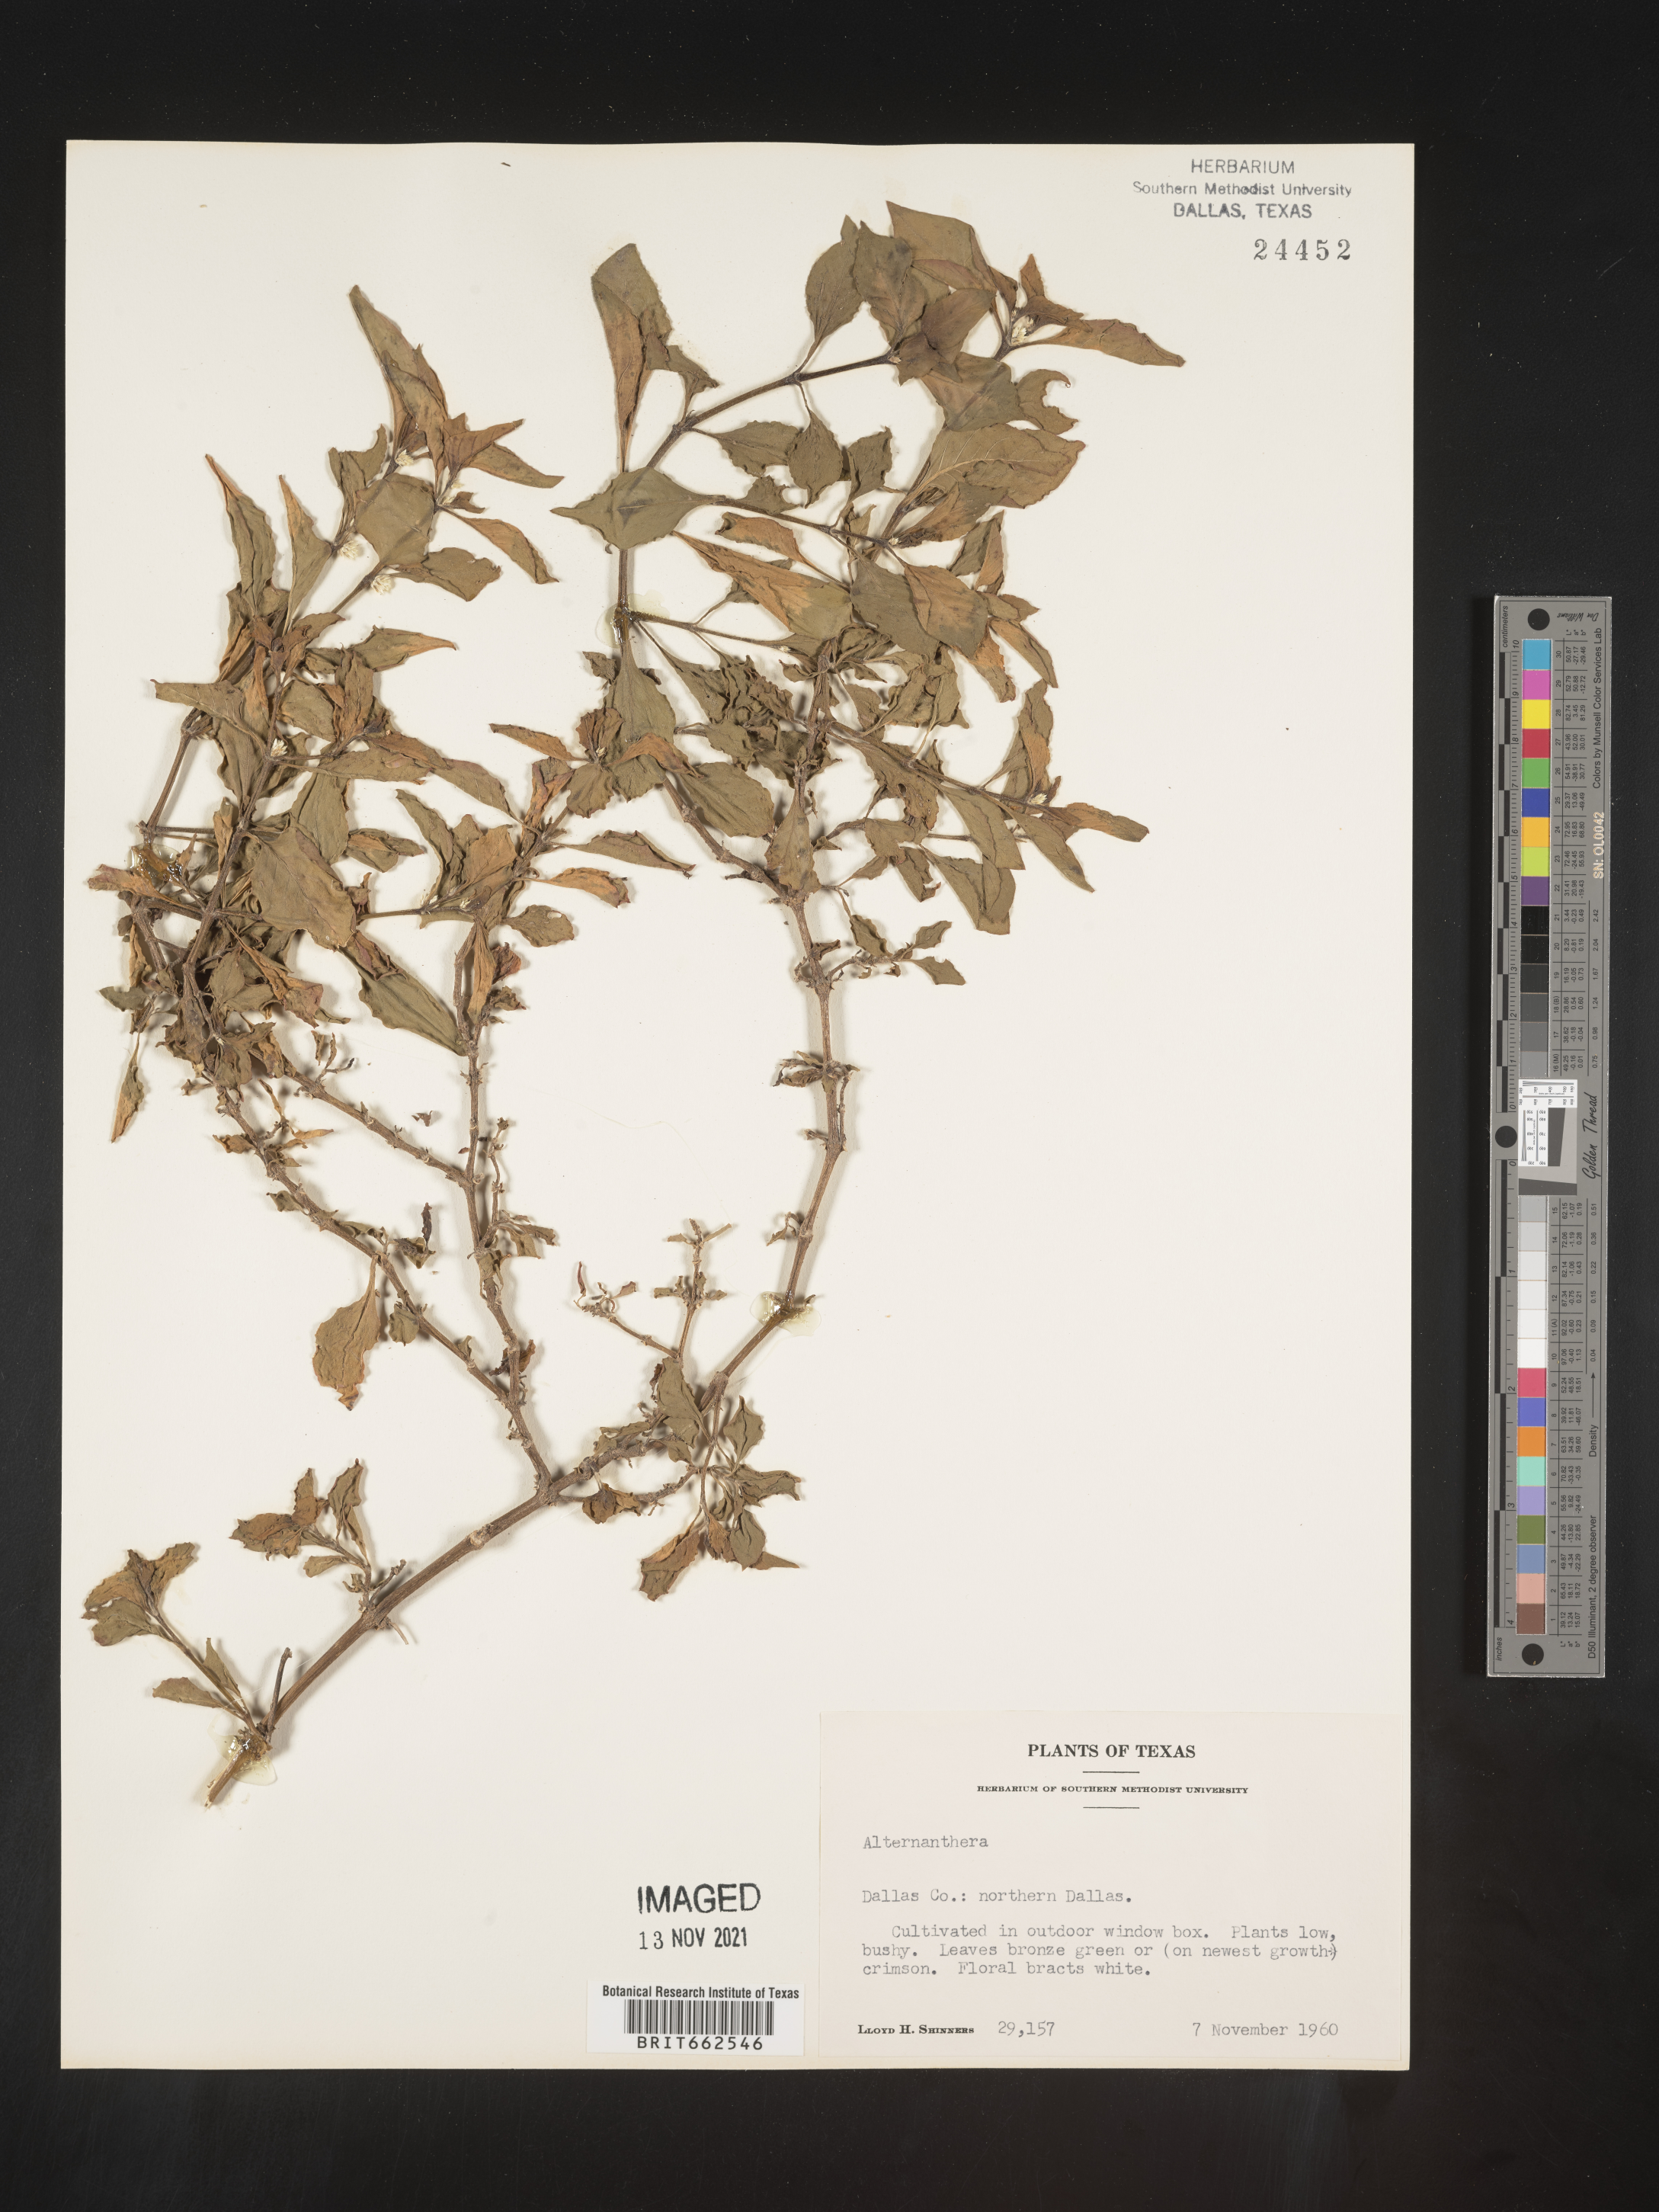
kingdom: Plantae
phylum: Tracheophyta
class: Magnoliopsida
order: Caryophyllales
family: Amaranthaceae
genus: Alternanthera
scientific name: Alternanthera
